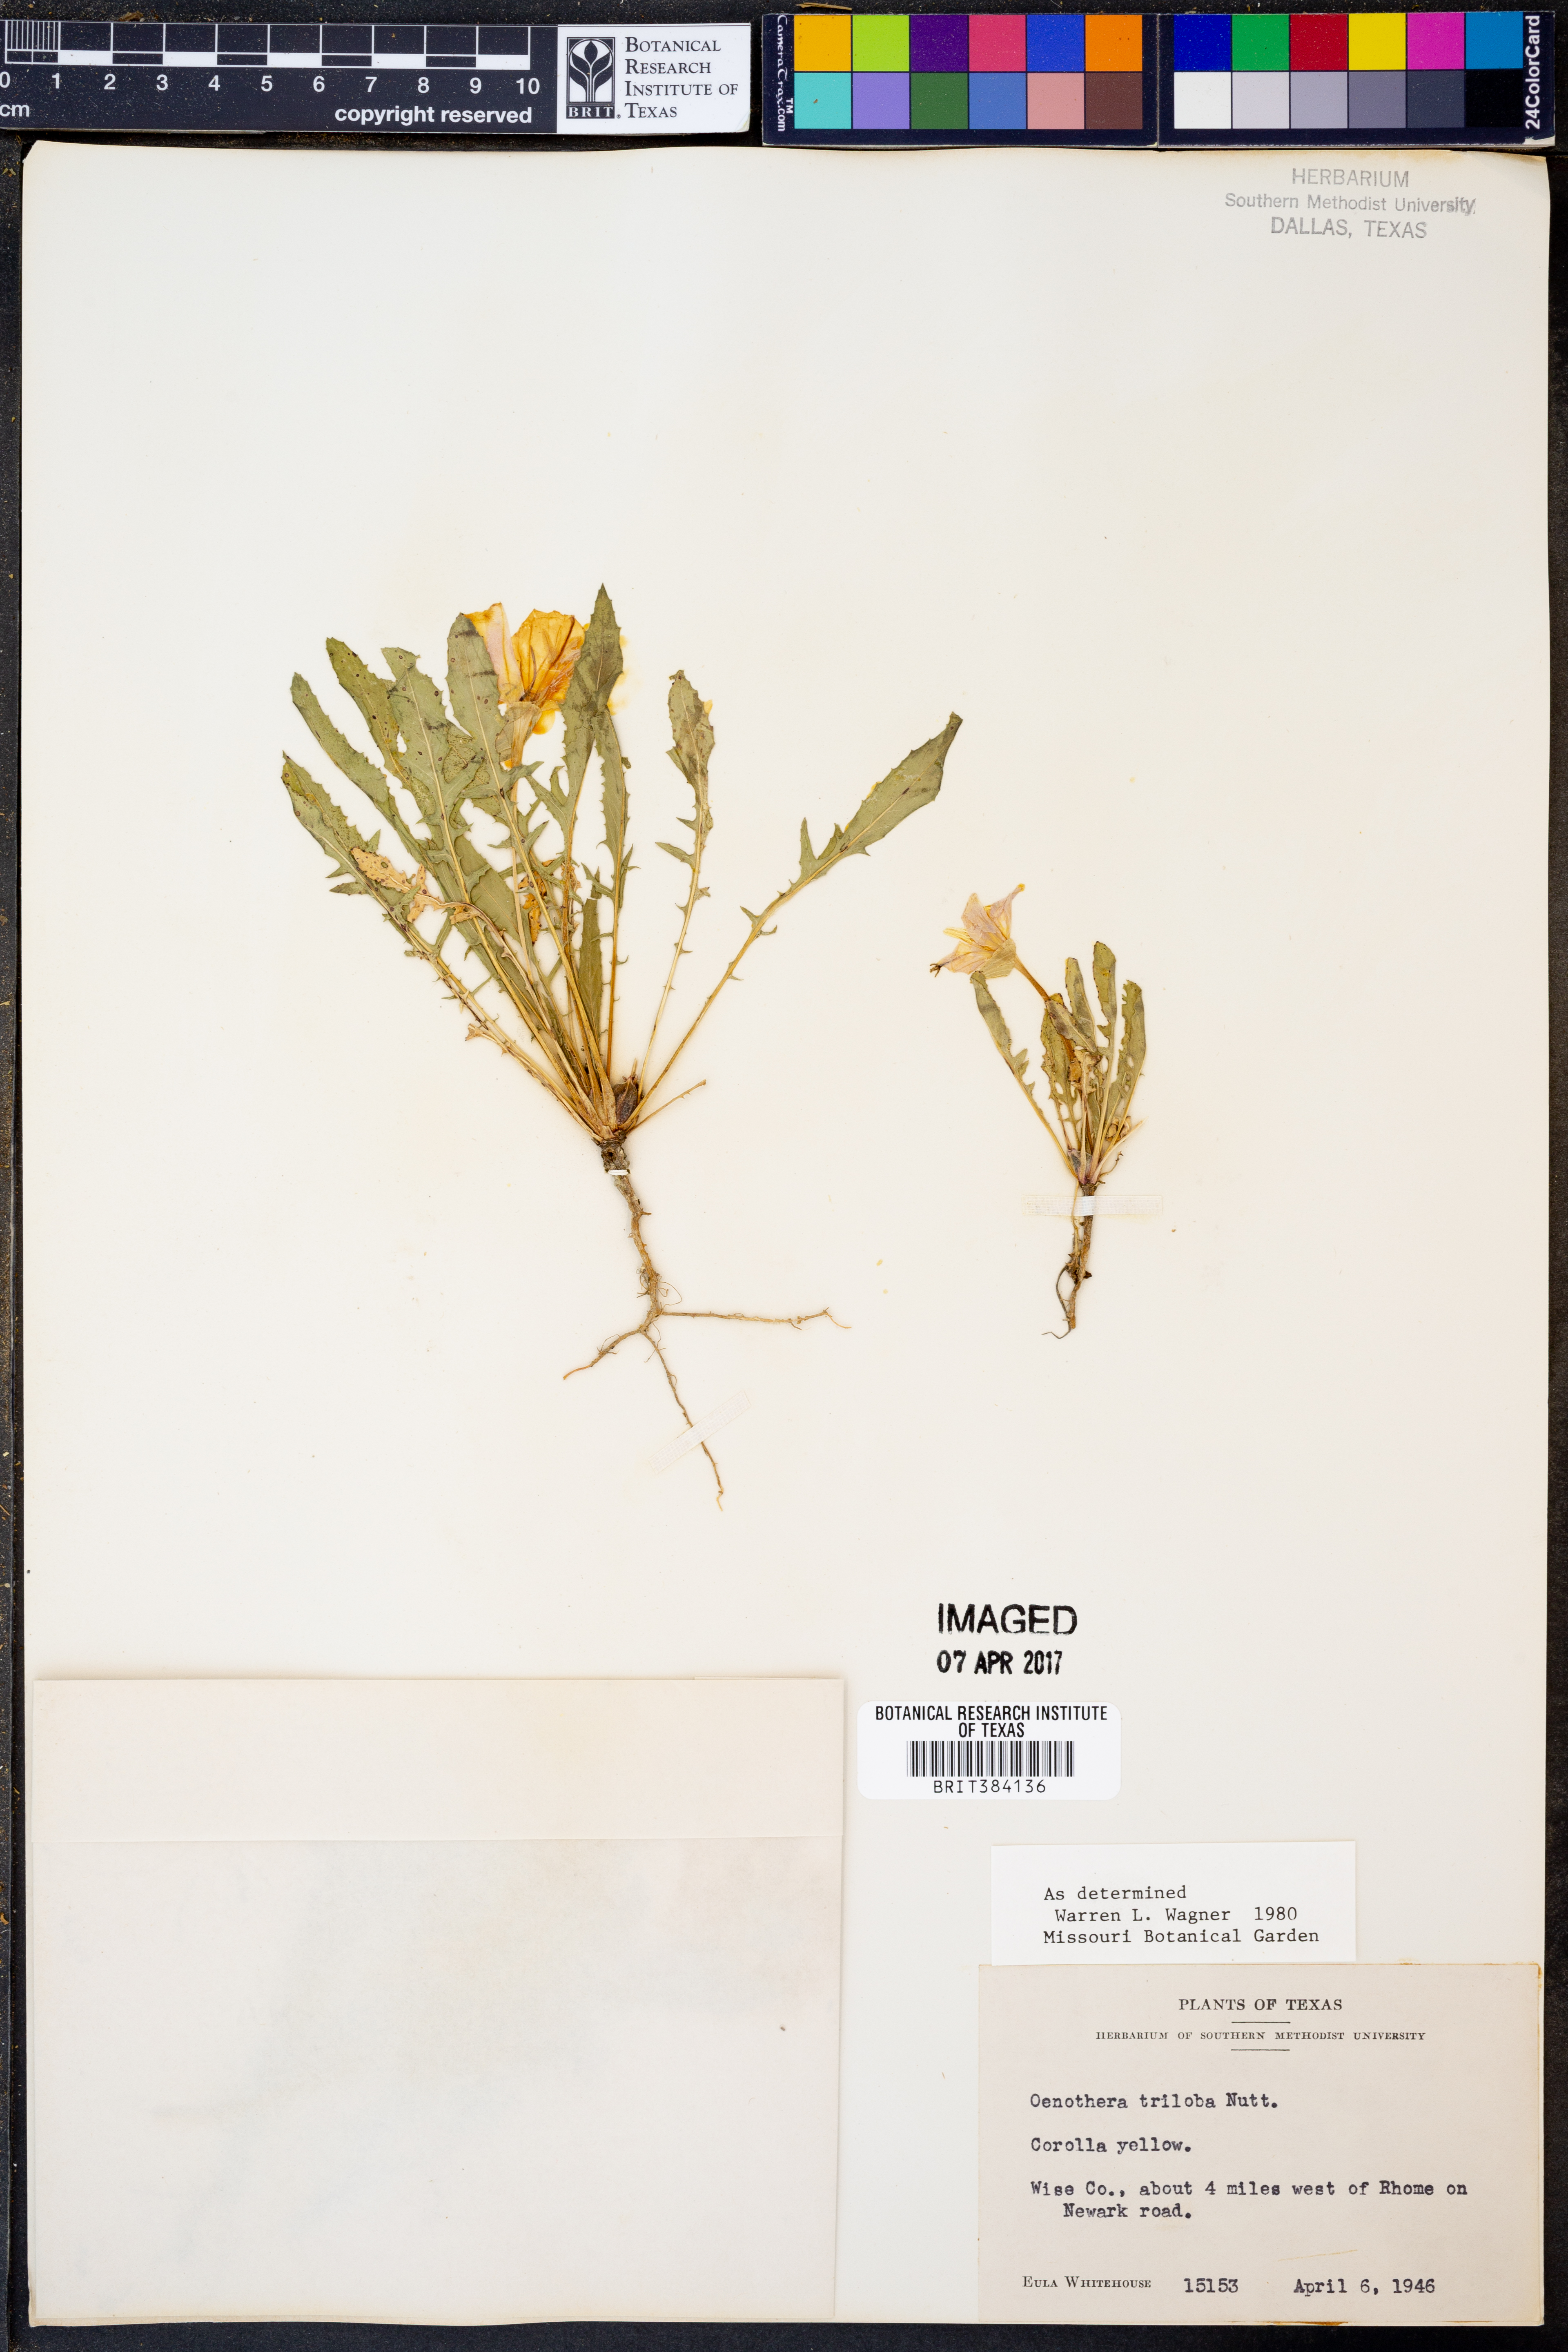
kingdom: Plantae
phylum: Tracheophyta
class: Magnoliopsida
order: Myrtales
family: Onagraceae
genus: Oenothera
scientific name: Oenothera triloba
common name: Sessile evening-primrose
